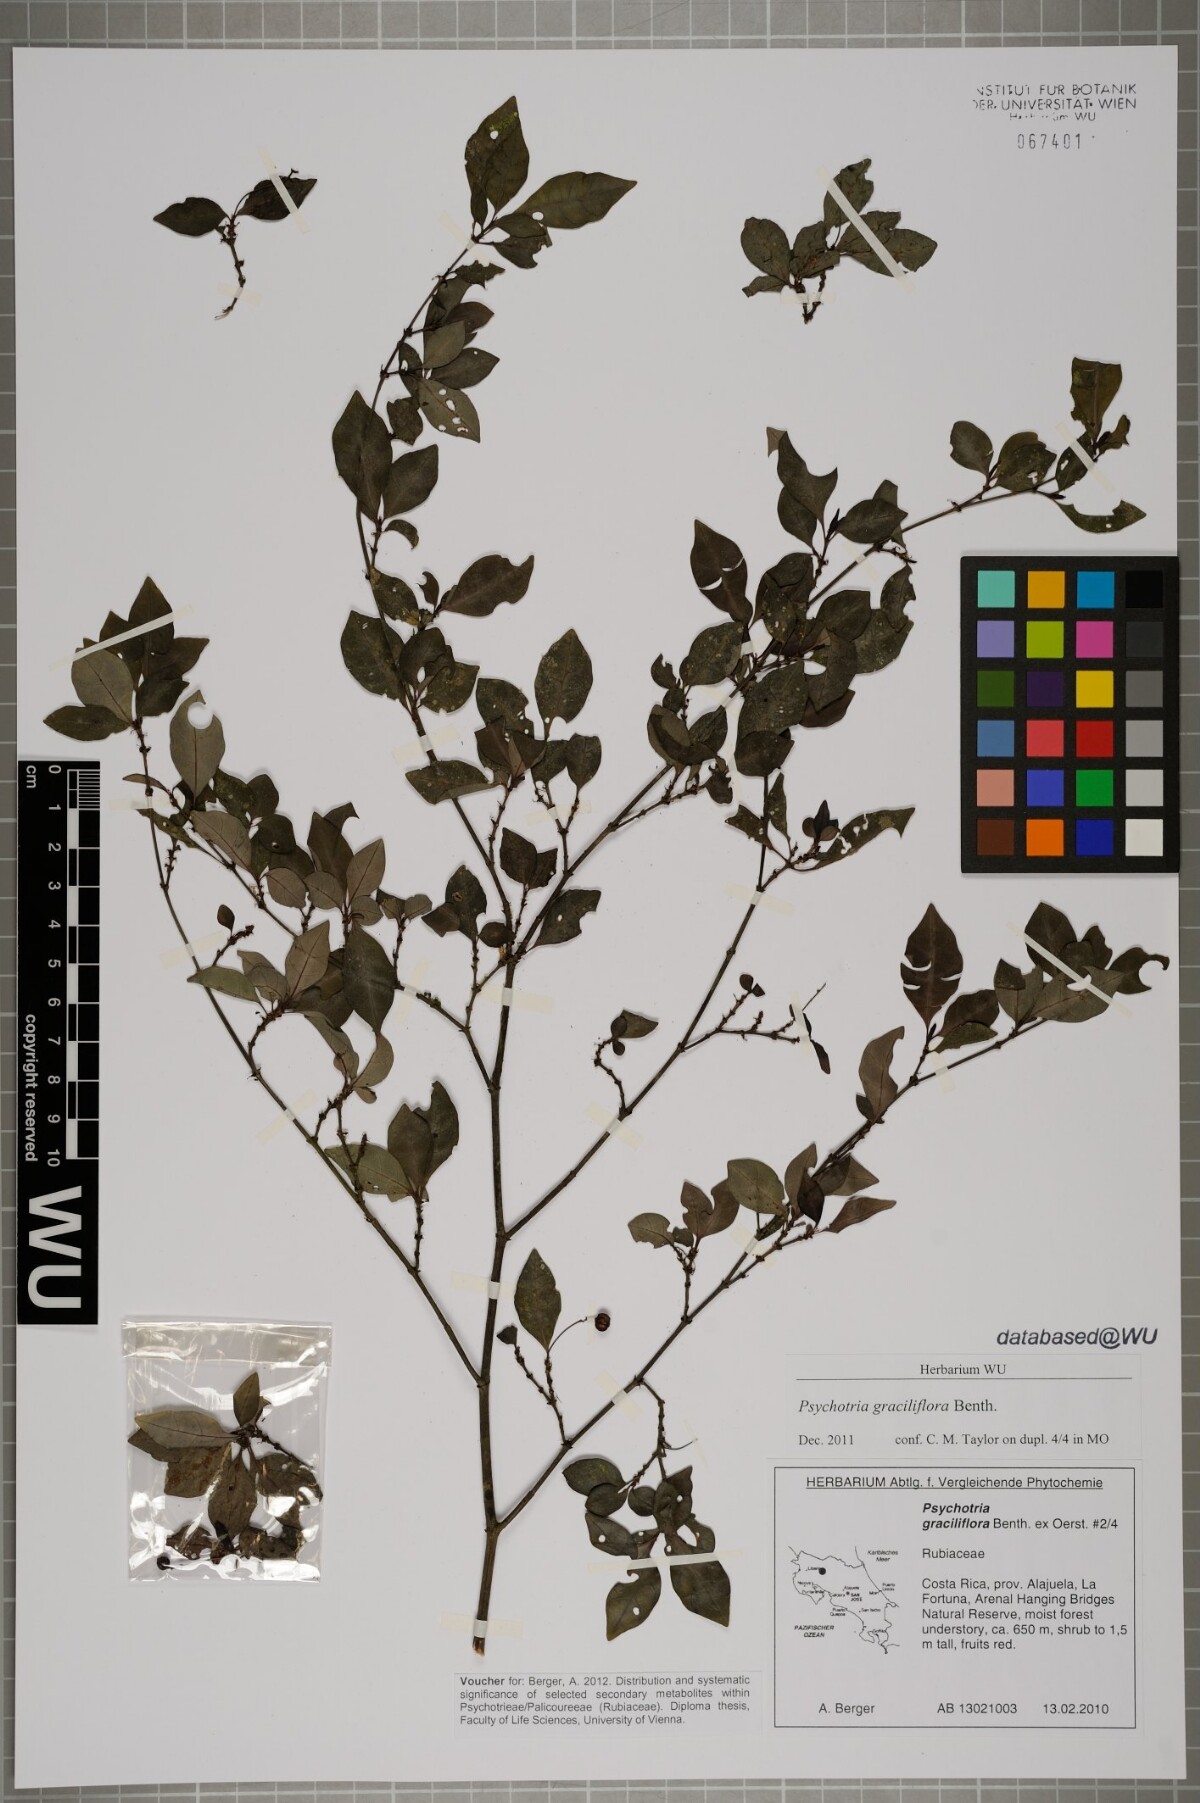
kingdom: Plantae
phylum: Tracheophyta
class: Magnoliopsida
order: Gentianales
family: Rubiaceae
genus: Psychotria
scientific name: Psychotria biaristata
